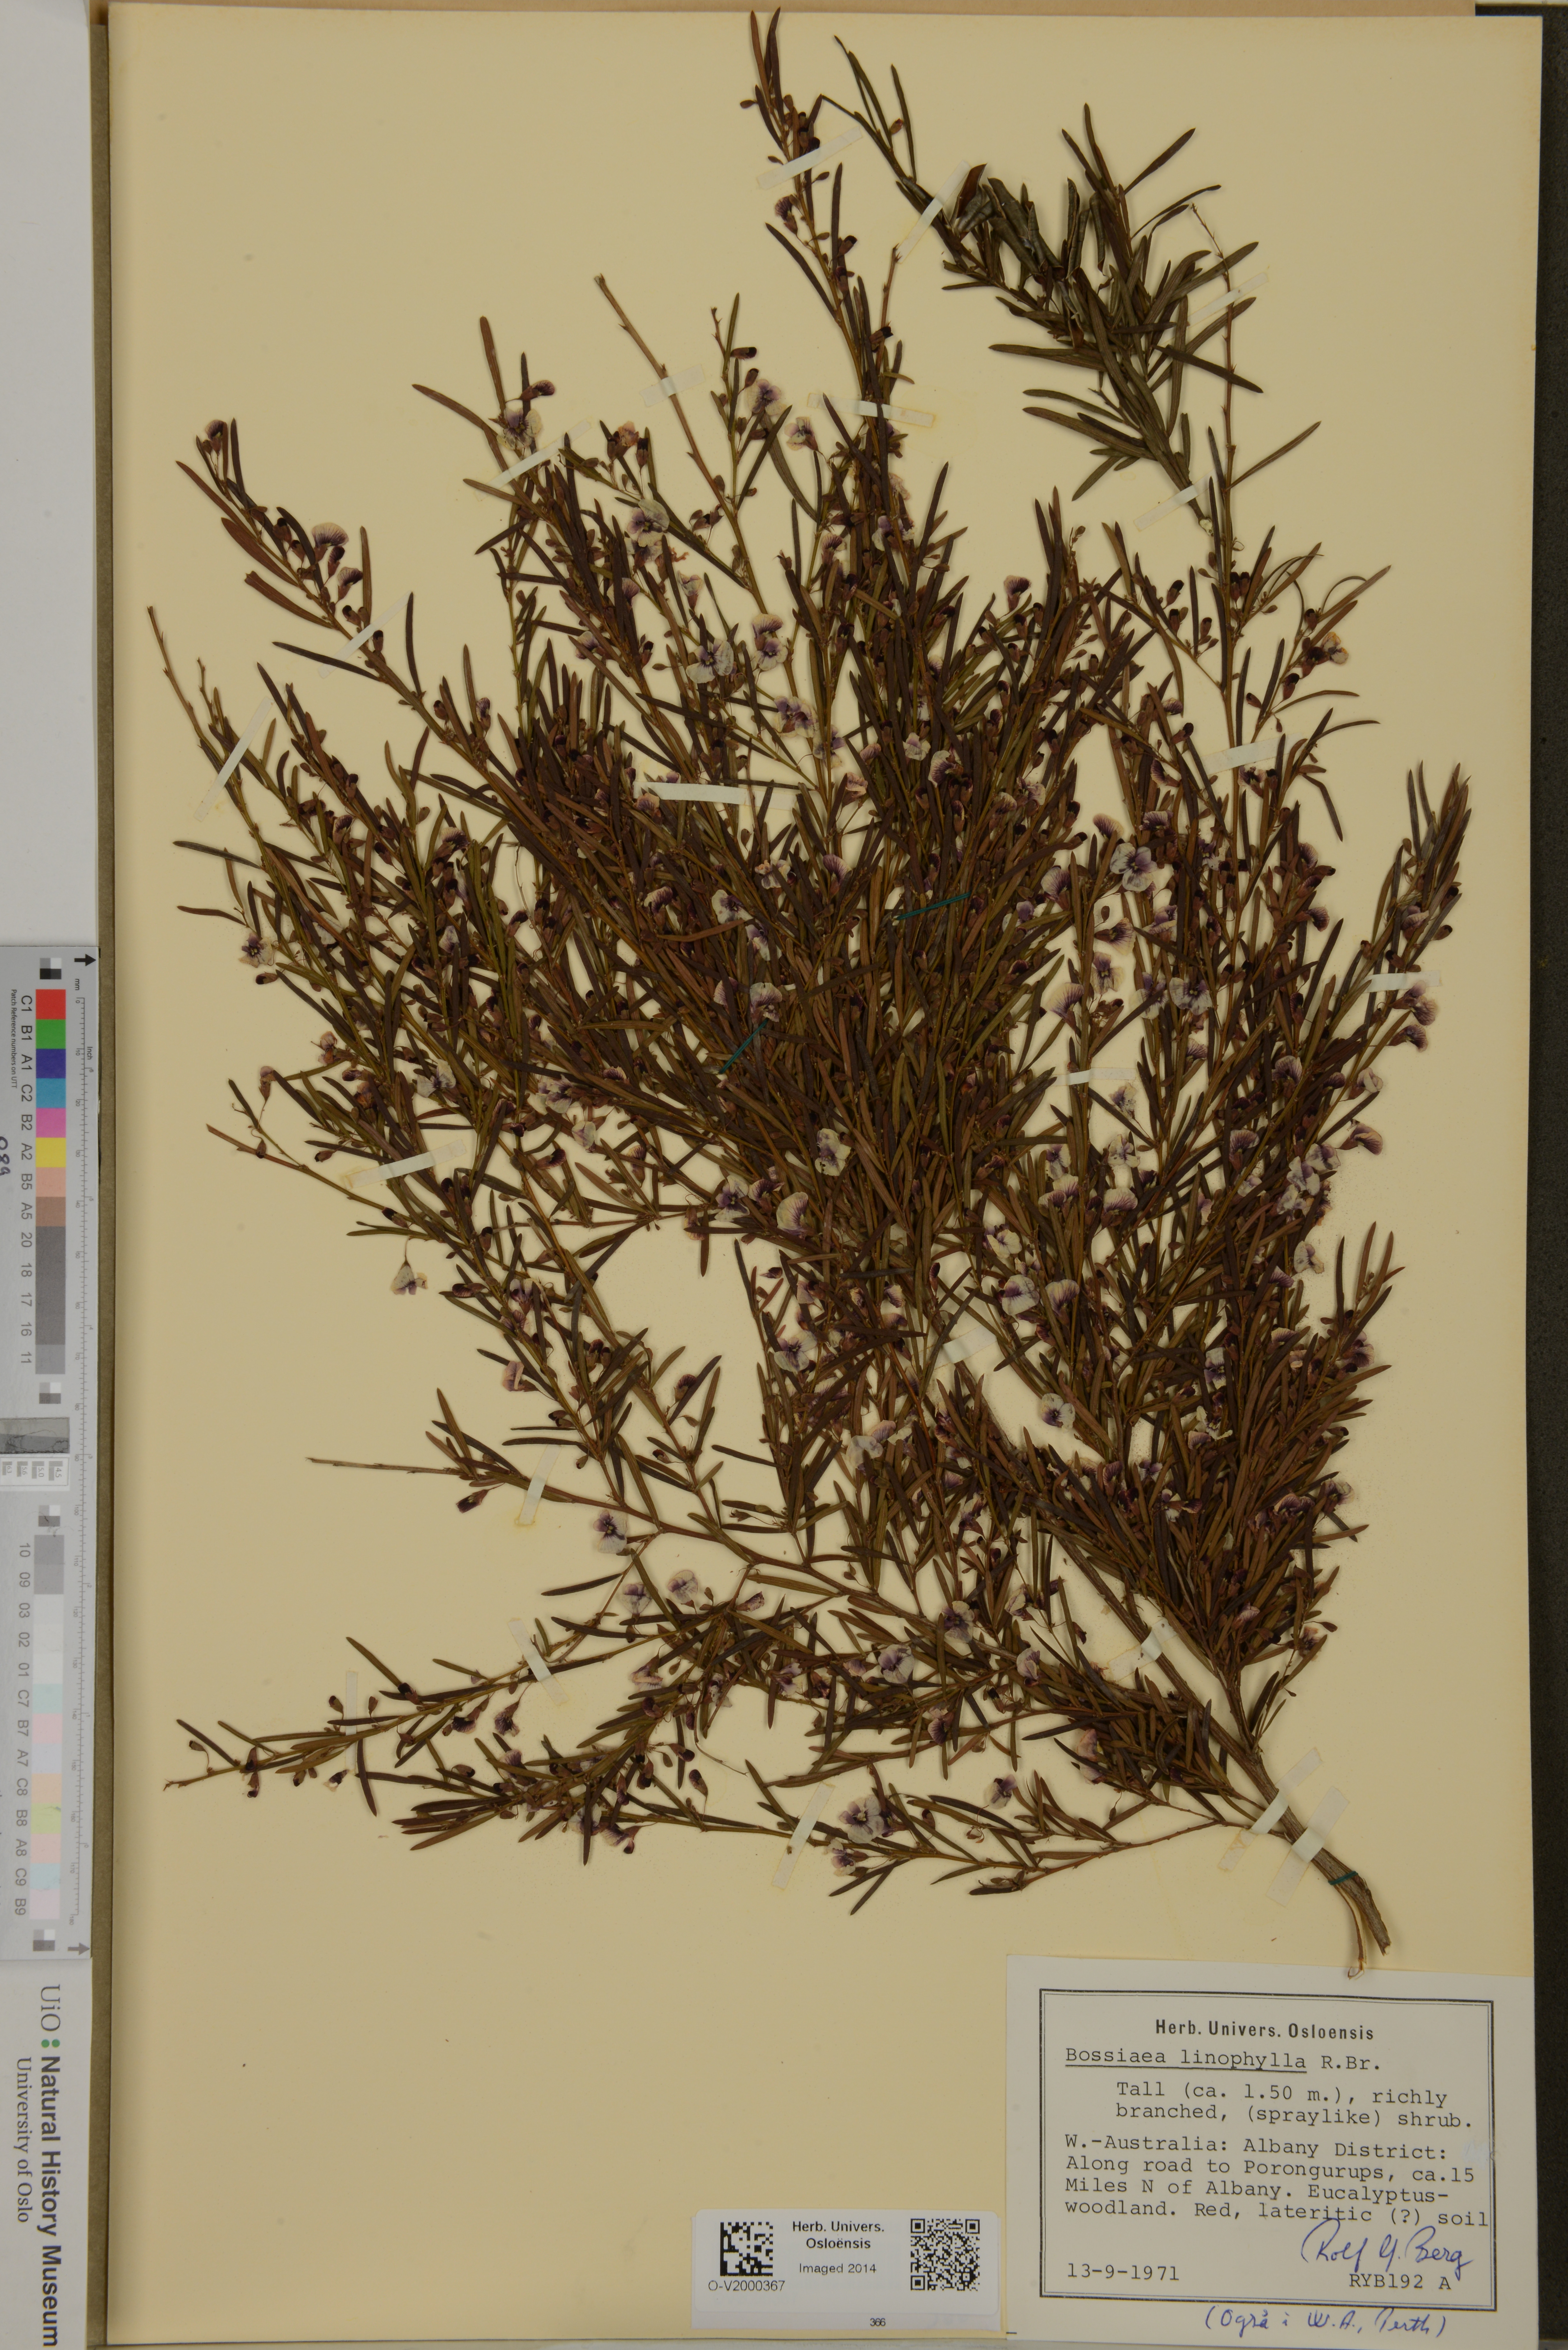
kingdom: Plantae
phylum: Tracheophyta
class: Magnoliopsida
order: Fabales
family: Fabaceae
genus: Bossiaea
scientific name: Bossiaea linophylla
